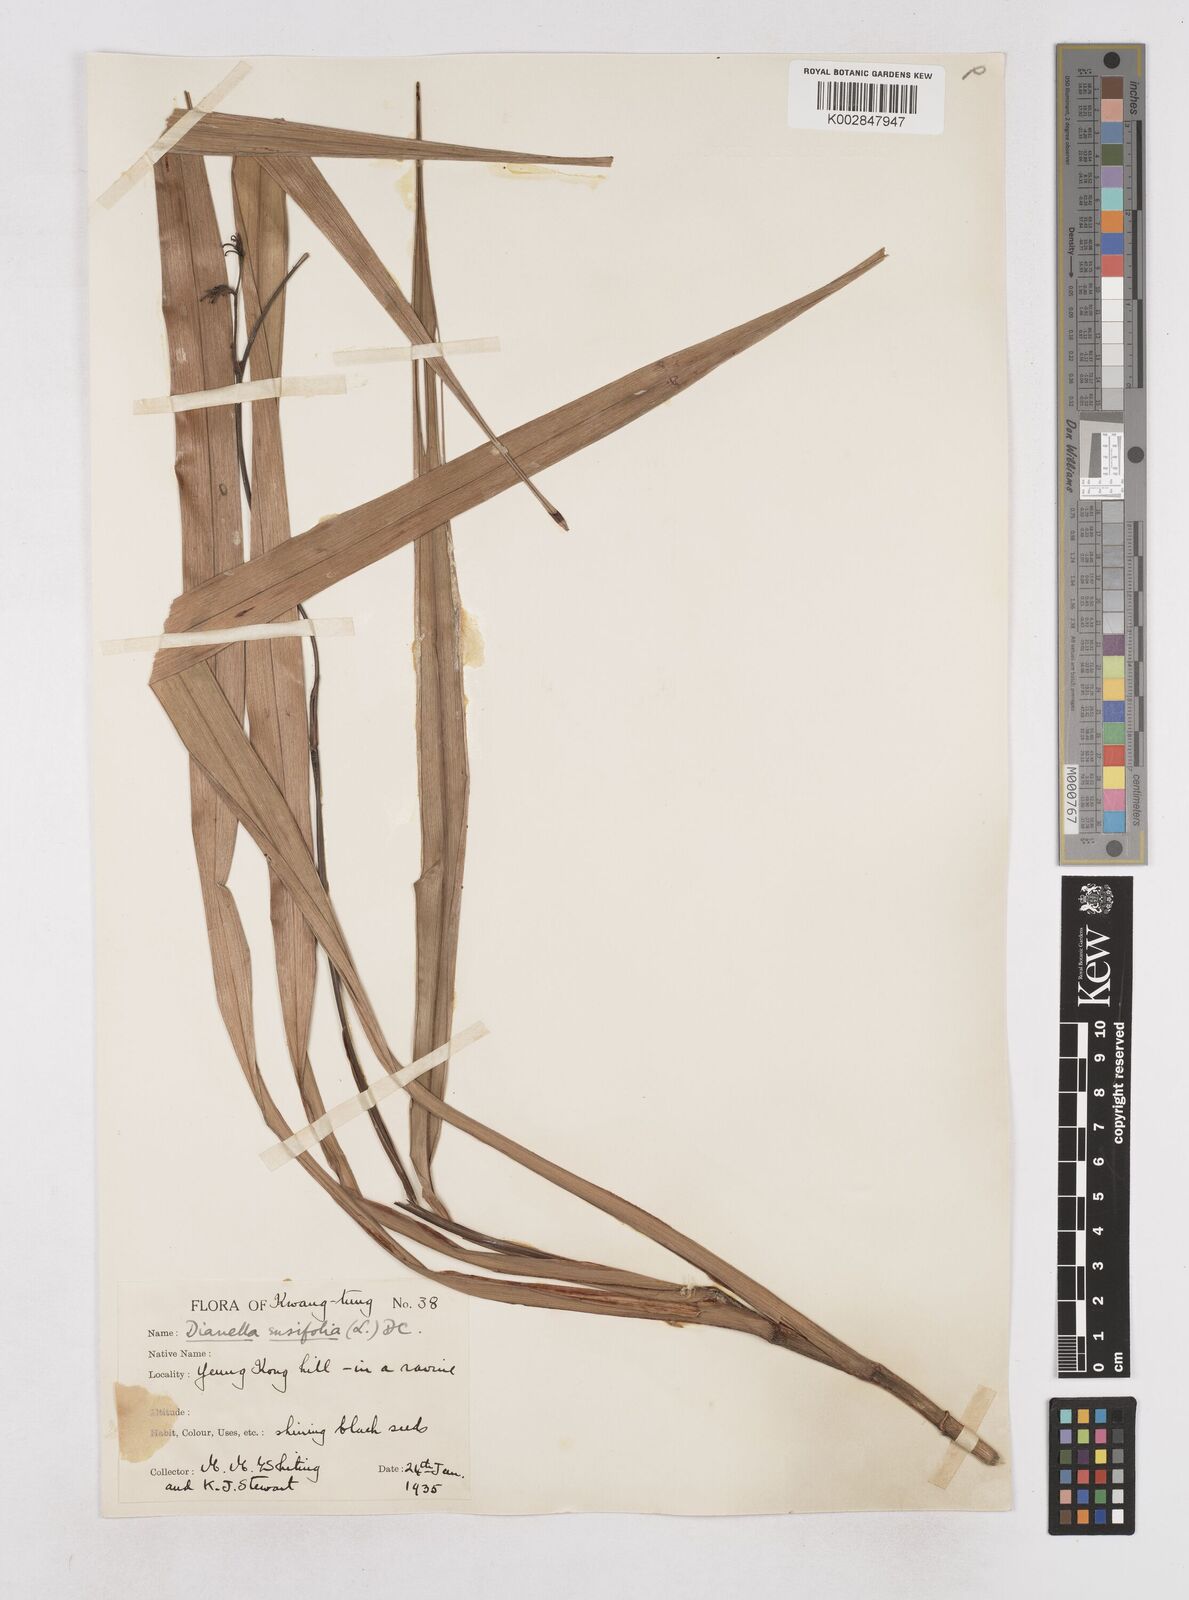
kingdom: Plantae
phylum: Tracheophyta
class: Liliopsida
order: Asparagales
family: Asphodelaceae
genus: Dianella
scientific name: Dianella ensifolia
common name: New zealand lilyplant
